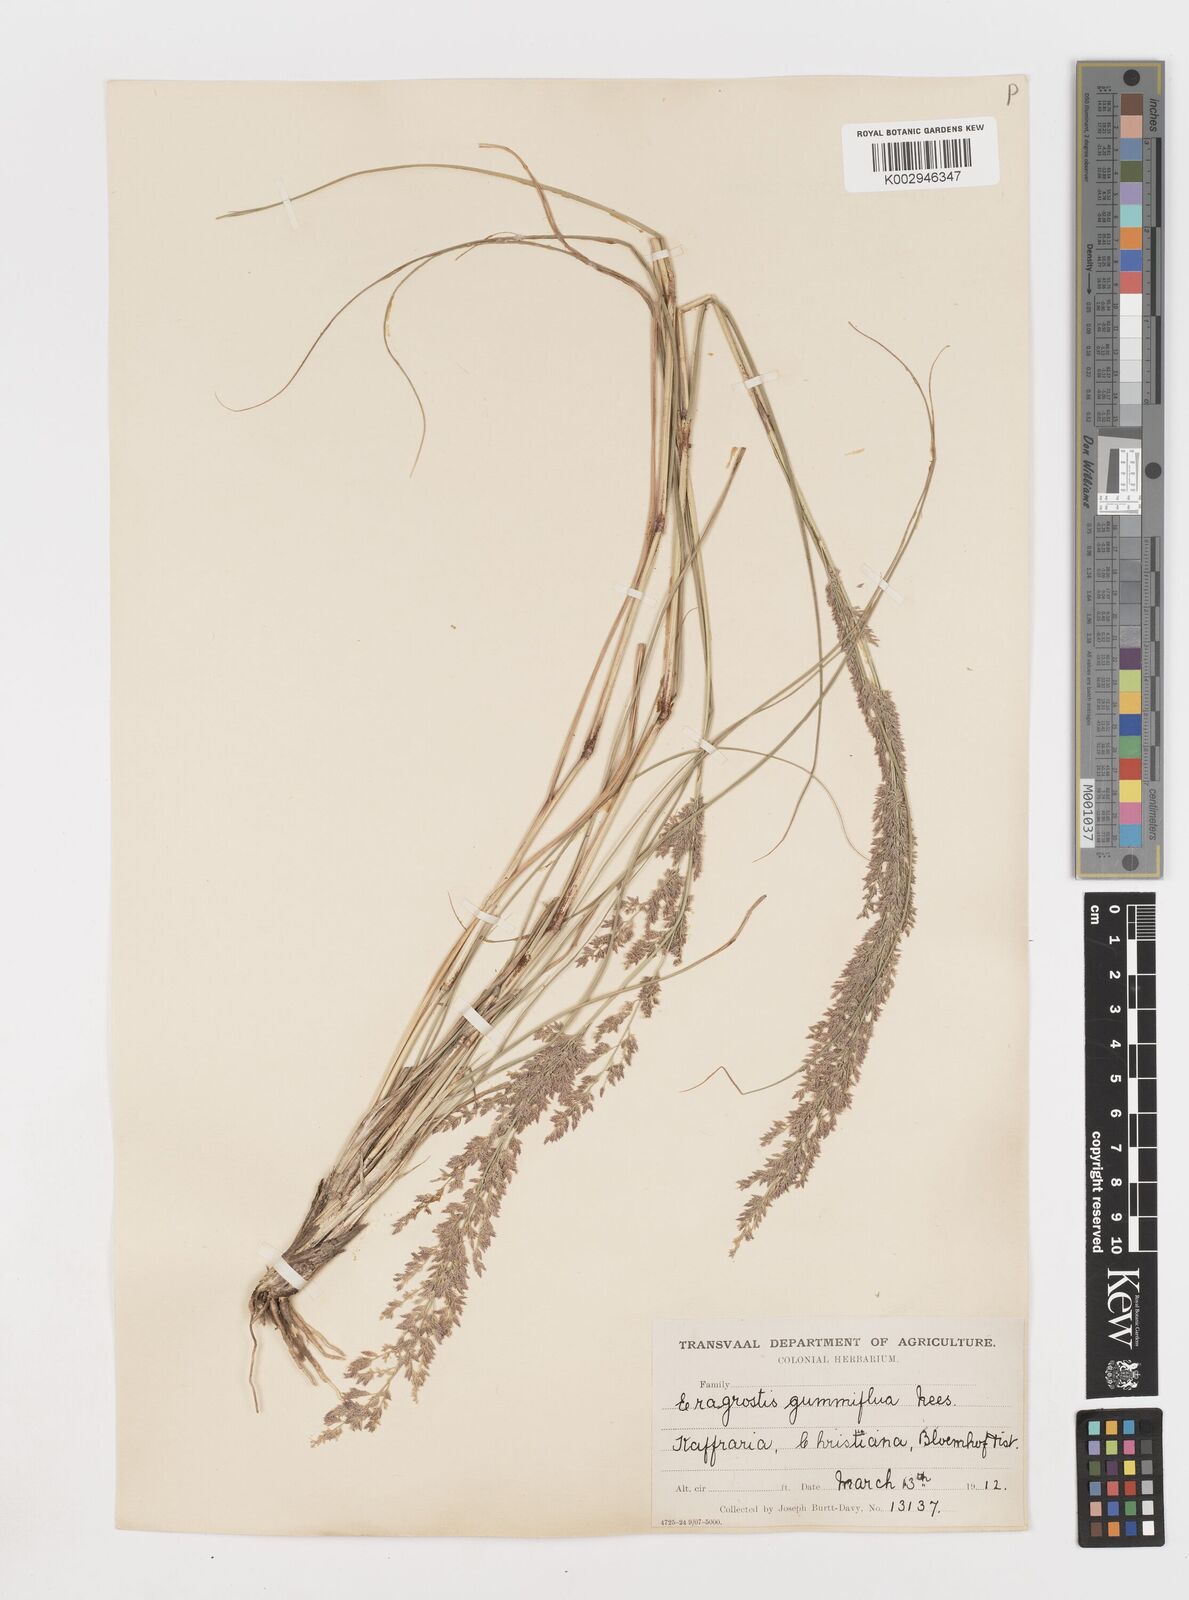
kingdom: Plantae
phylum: Tracheophyta
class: Liliopsida
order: Poales
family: Poaceae
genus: Eragrostis
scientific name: Eragrostis gummiflua
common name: Gum grass
